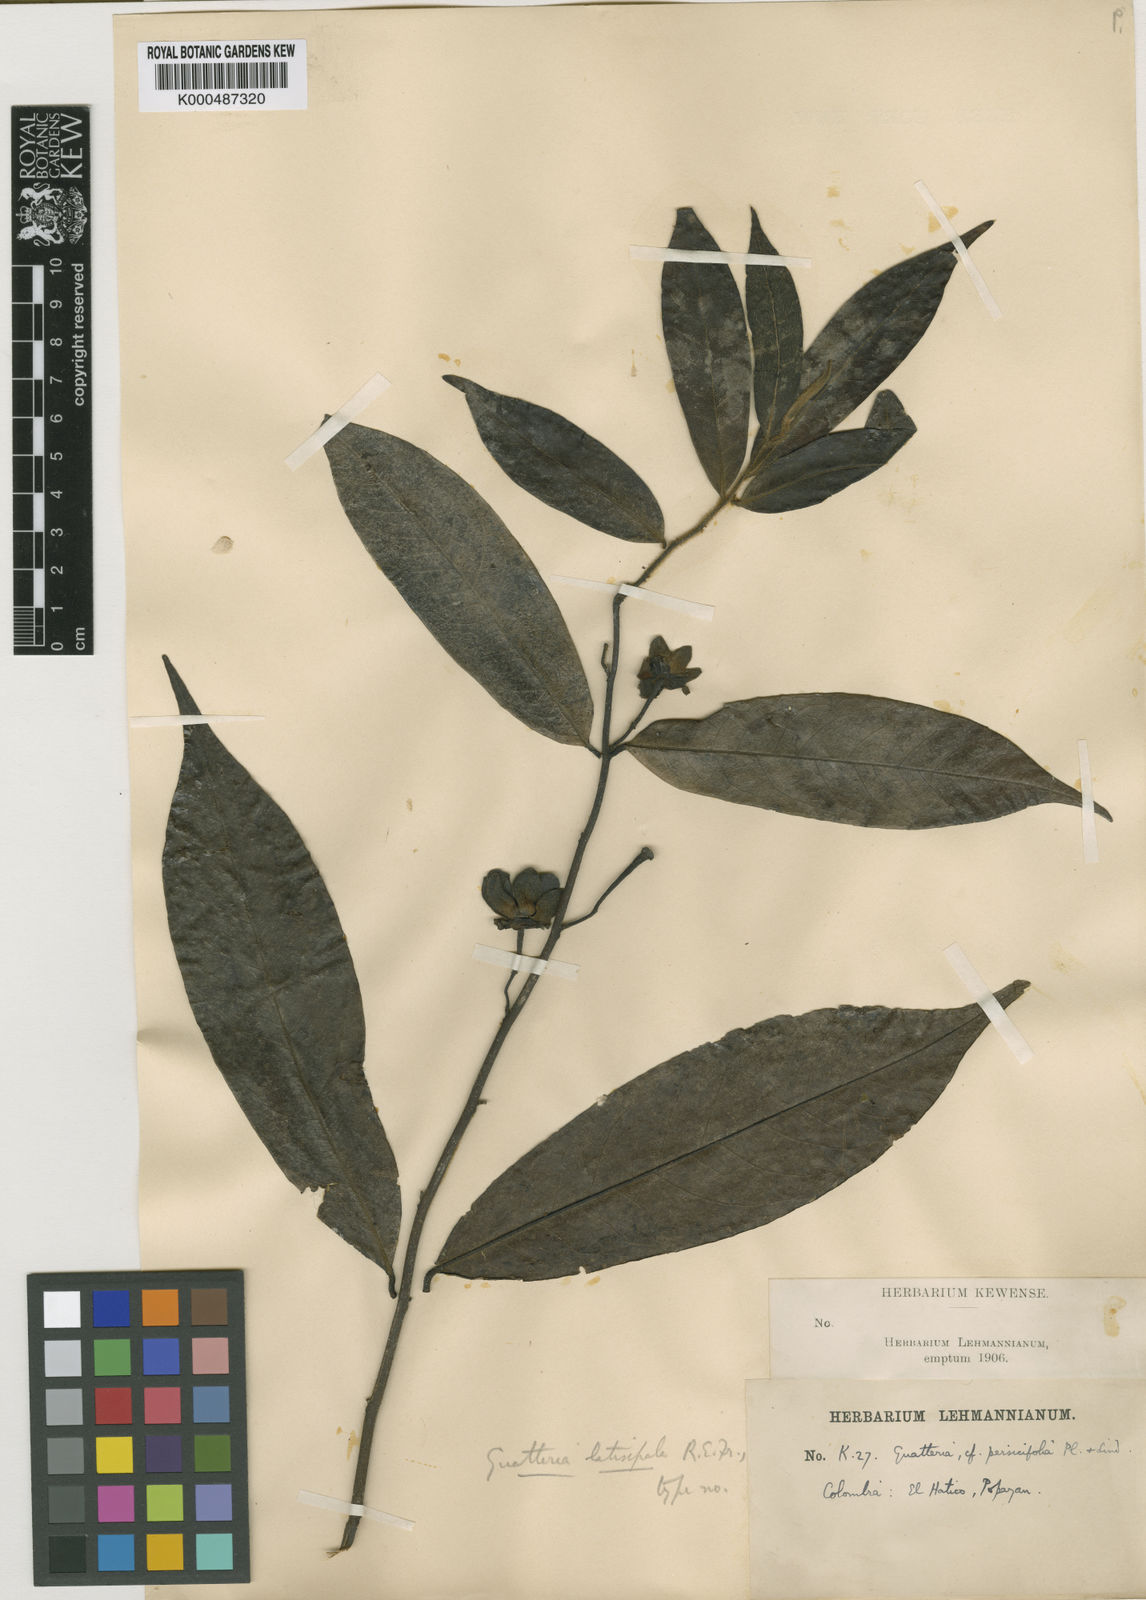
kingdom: Plantae
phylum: Tracheophyta
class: Magnoliopsida
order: Magnoliales
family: Annonaceae
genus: Guatteria
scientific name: Guatteria latisepala
